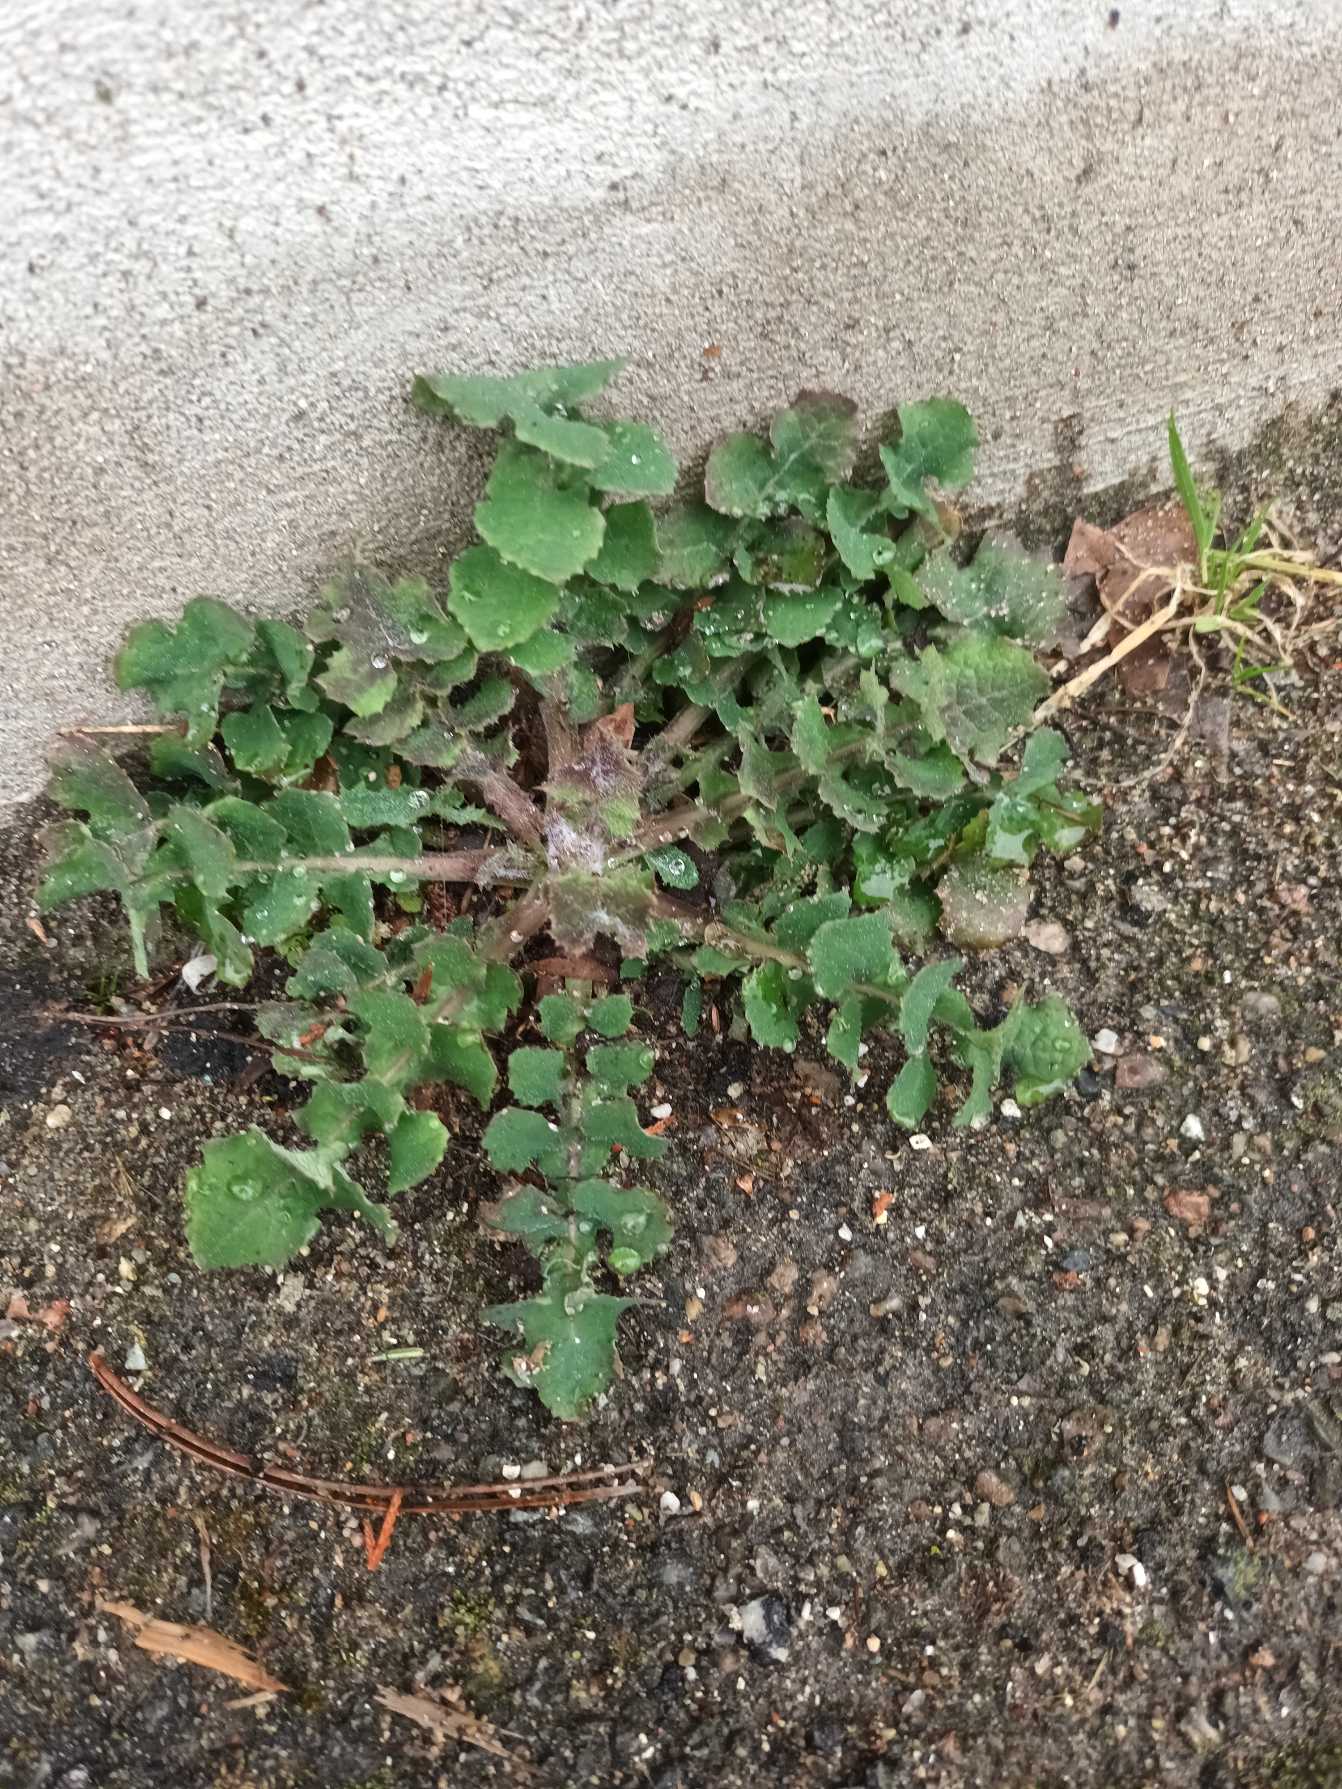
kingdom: Plantae
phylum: Tracheophyta
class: Magnoliopsida
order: Asterales
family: Asteraceae
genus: Sonchus
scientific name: Sonchus oleraceus
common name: Almindelig svinemælk
